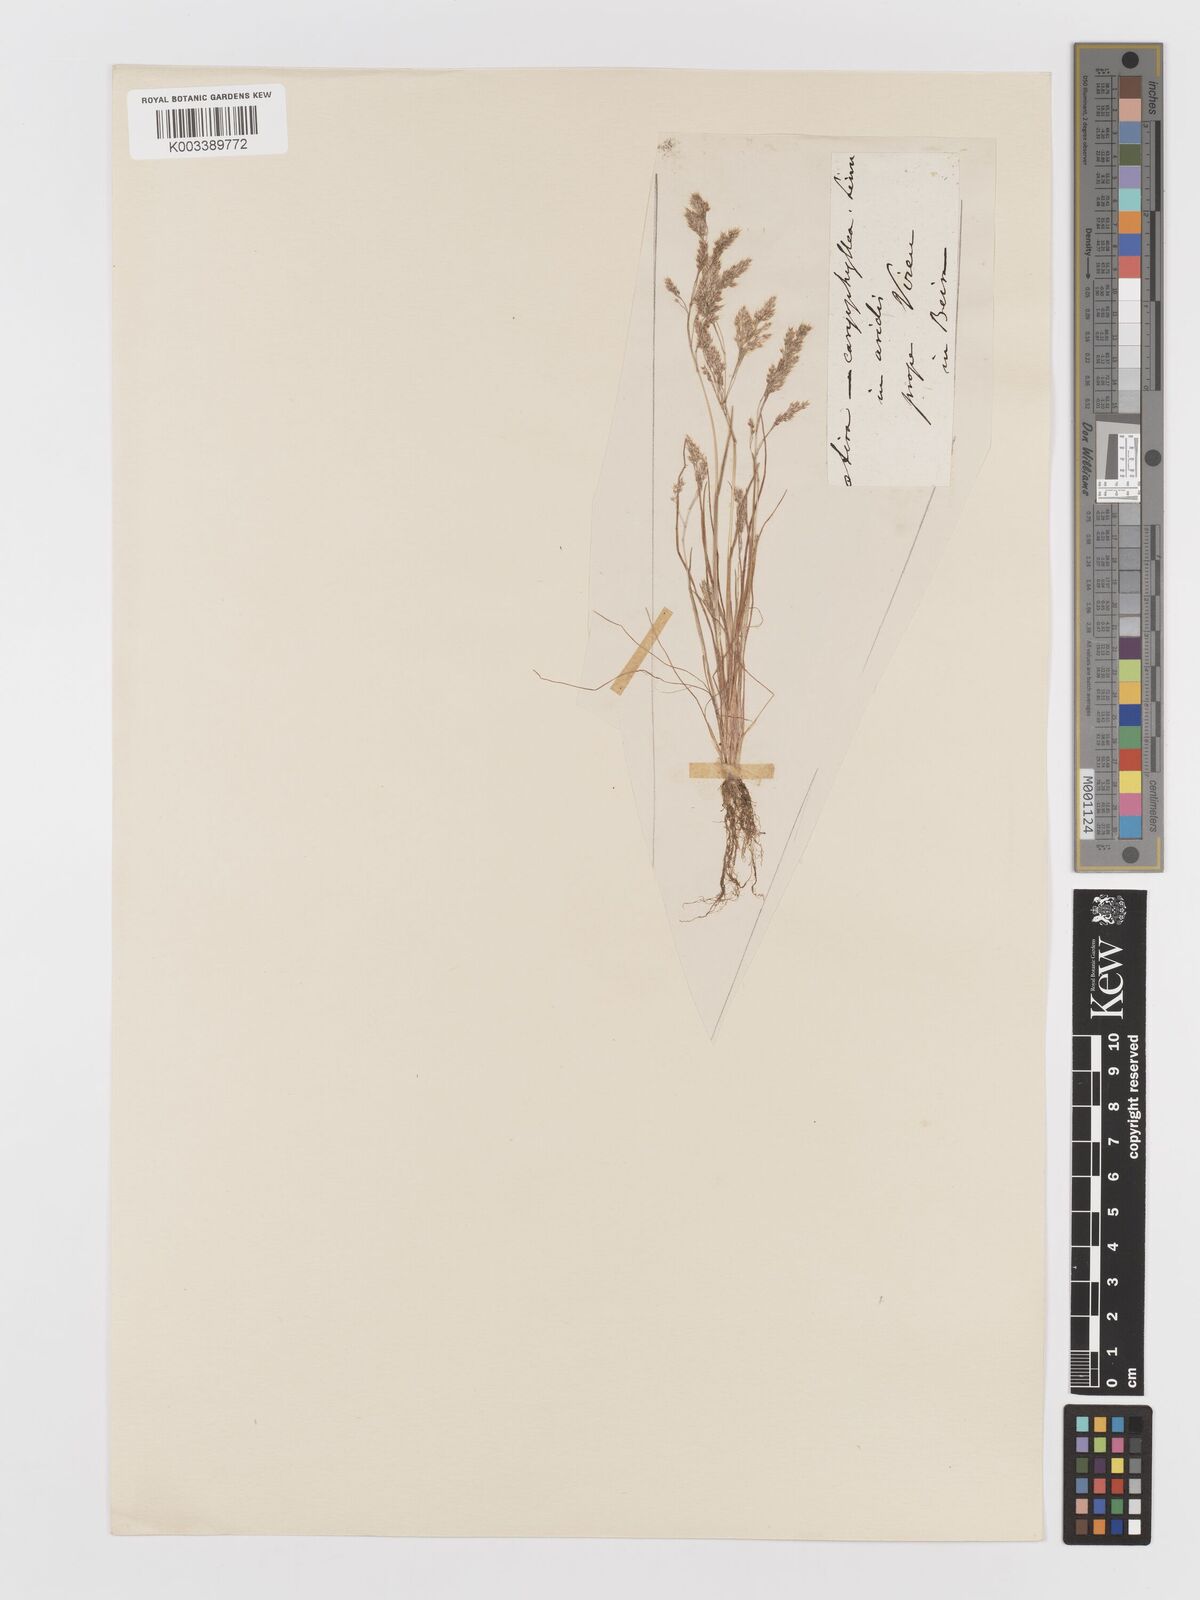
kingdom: Plantae
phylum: Tracheophyta
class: Liliopsida
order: Poales
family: Poaceae
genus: Aira
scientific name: Aira cupaniana
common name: Silver hairgrass
